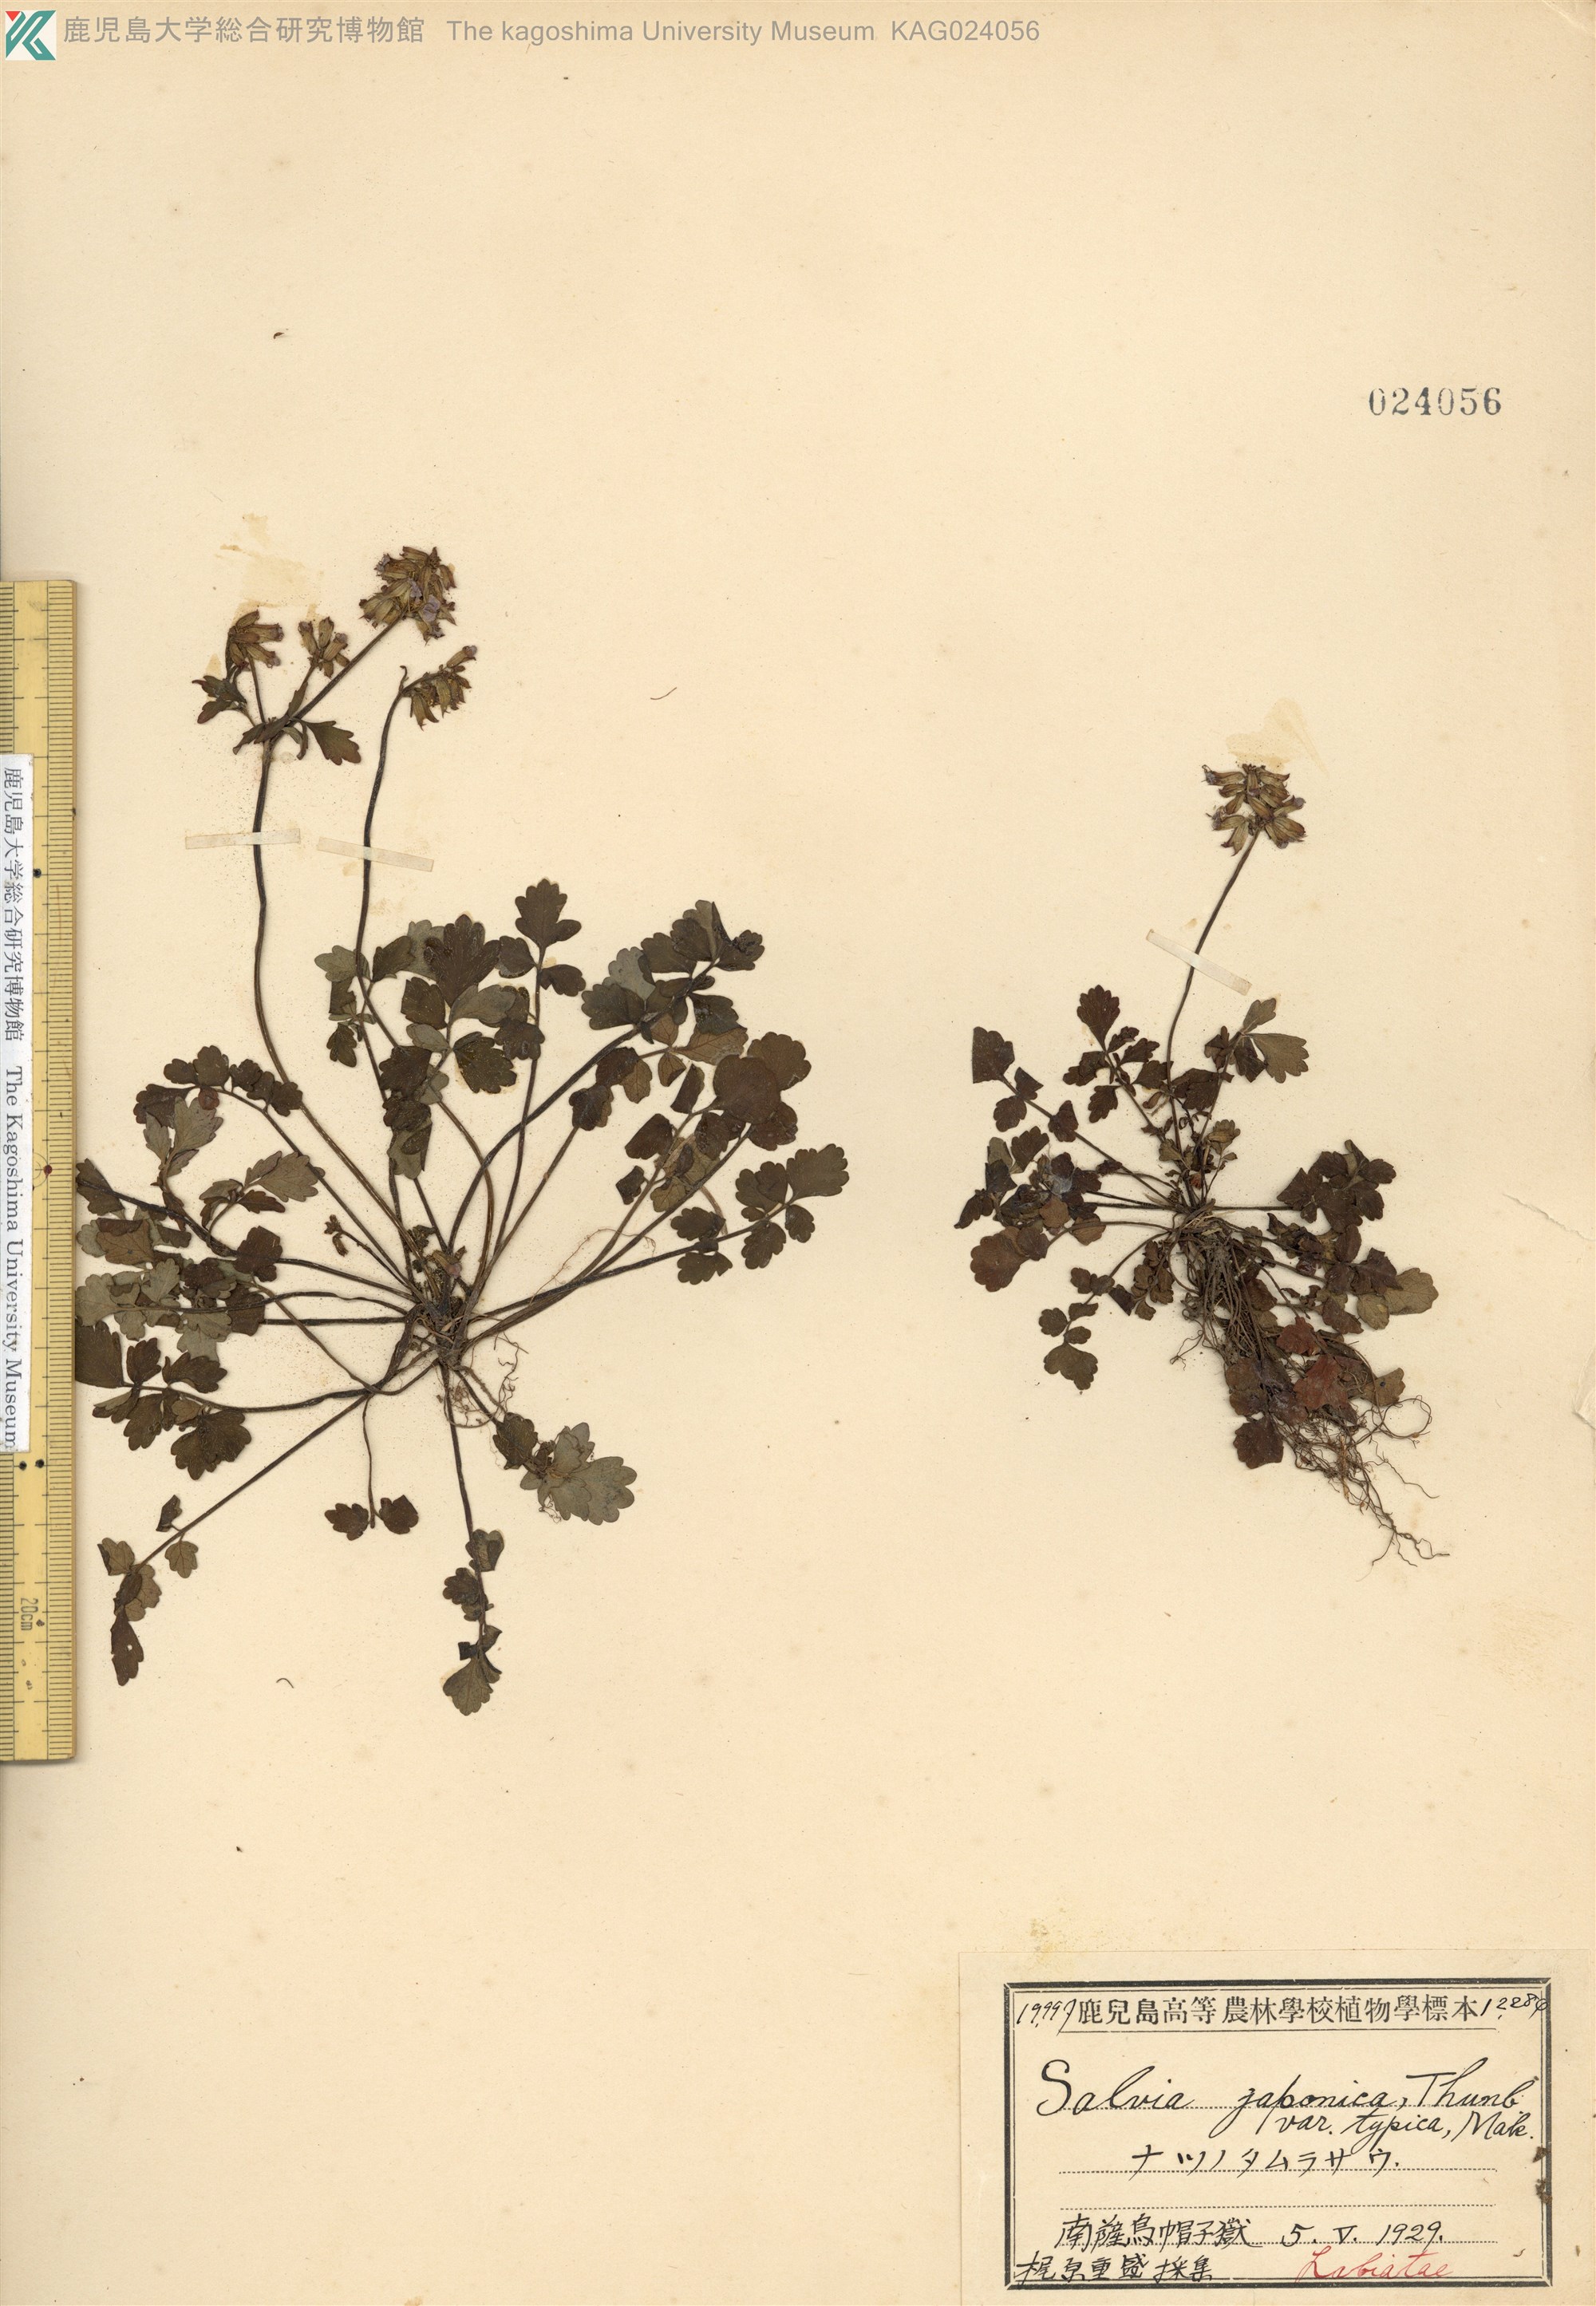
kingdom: Plantae
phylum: Tracheophyta
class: Magnoliopsida
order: Lamiales
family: Lamiaceae
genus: Salvia
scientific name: Salvia ranzaniana
